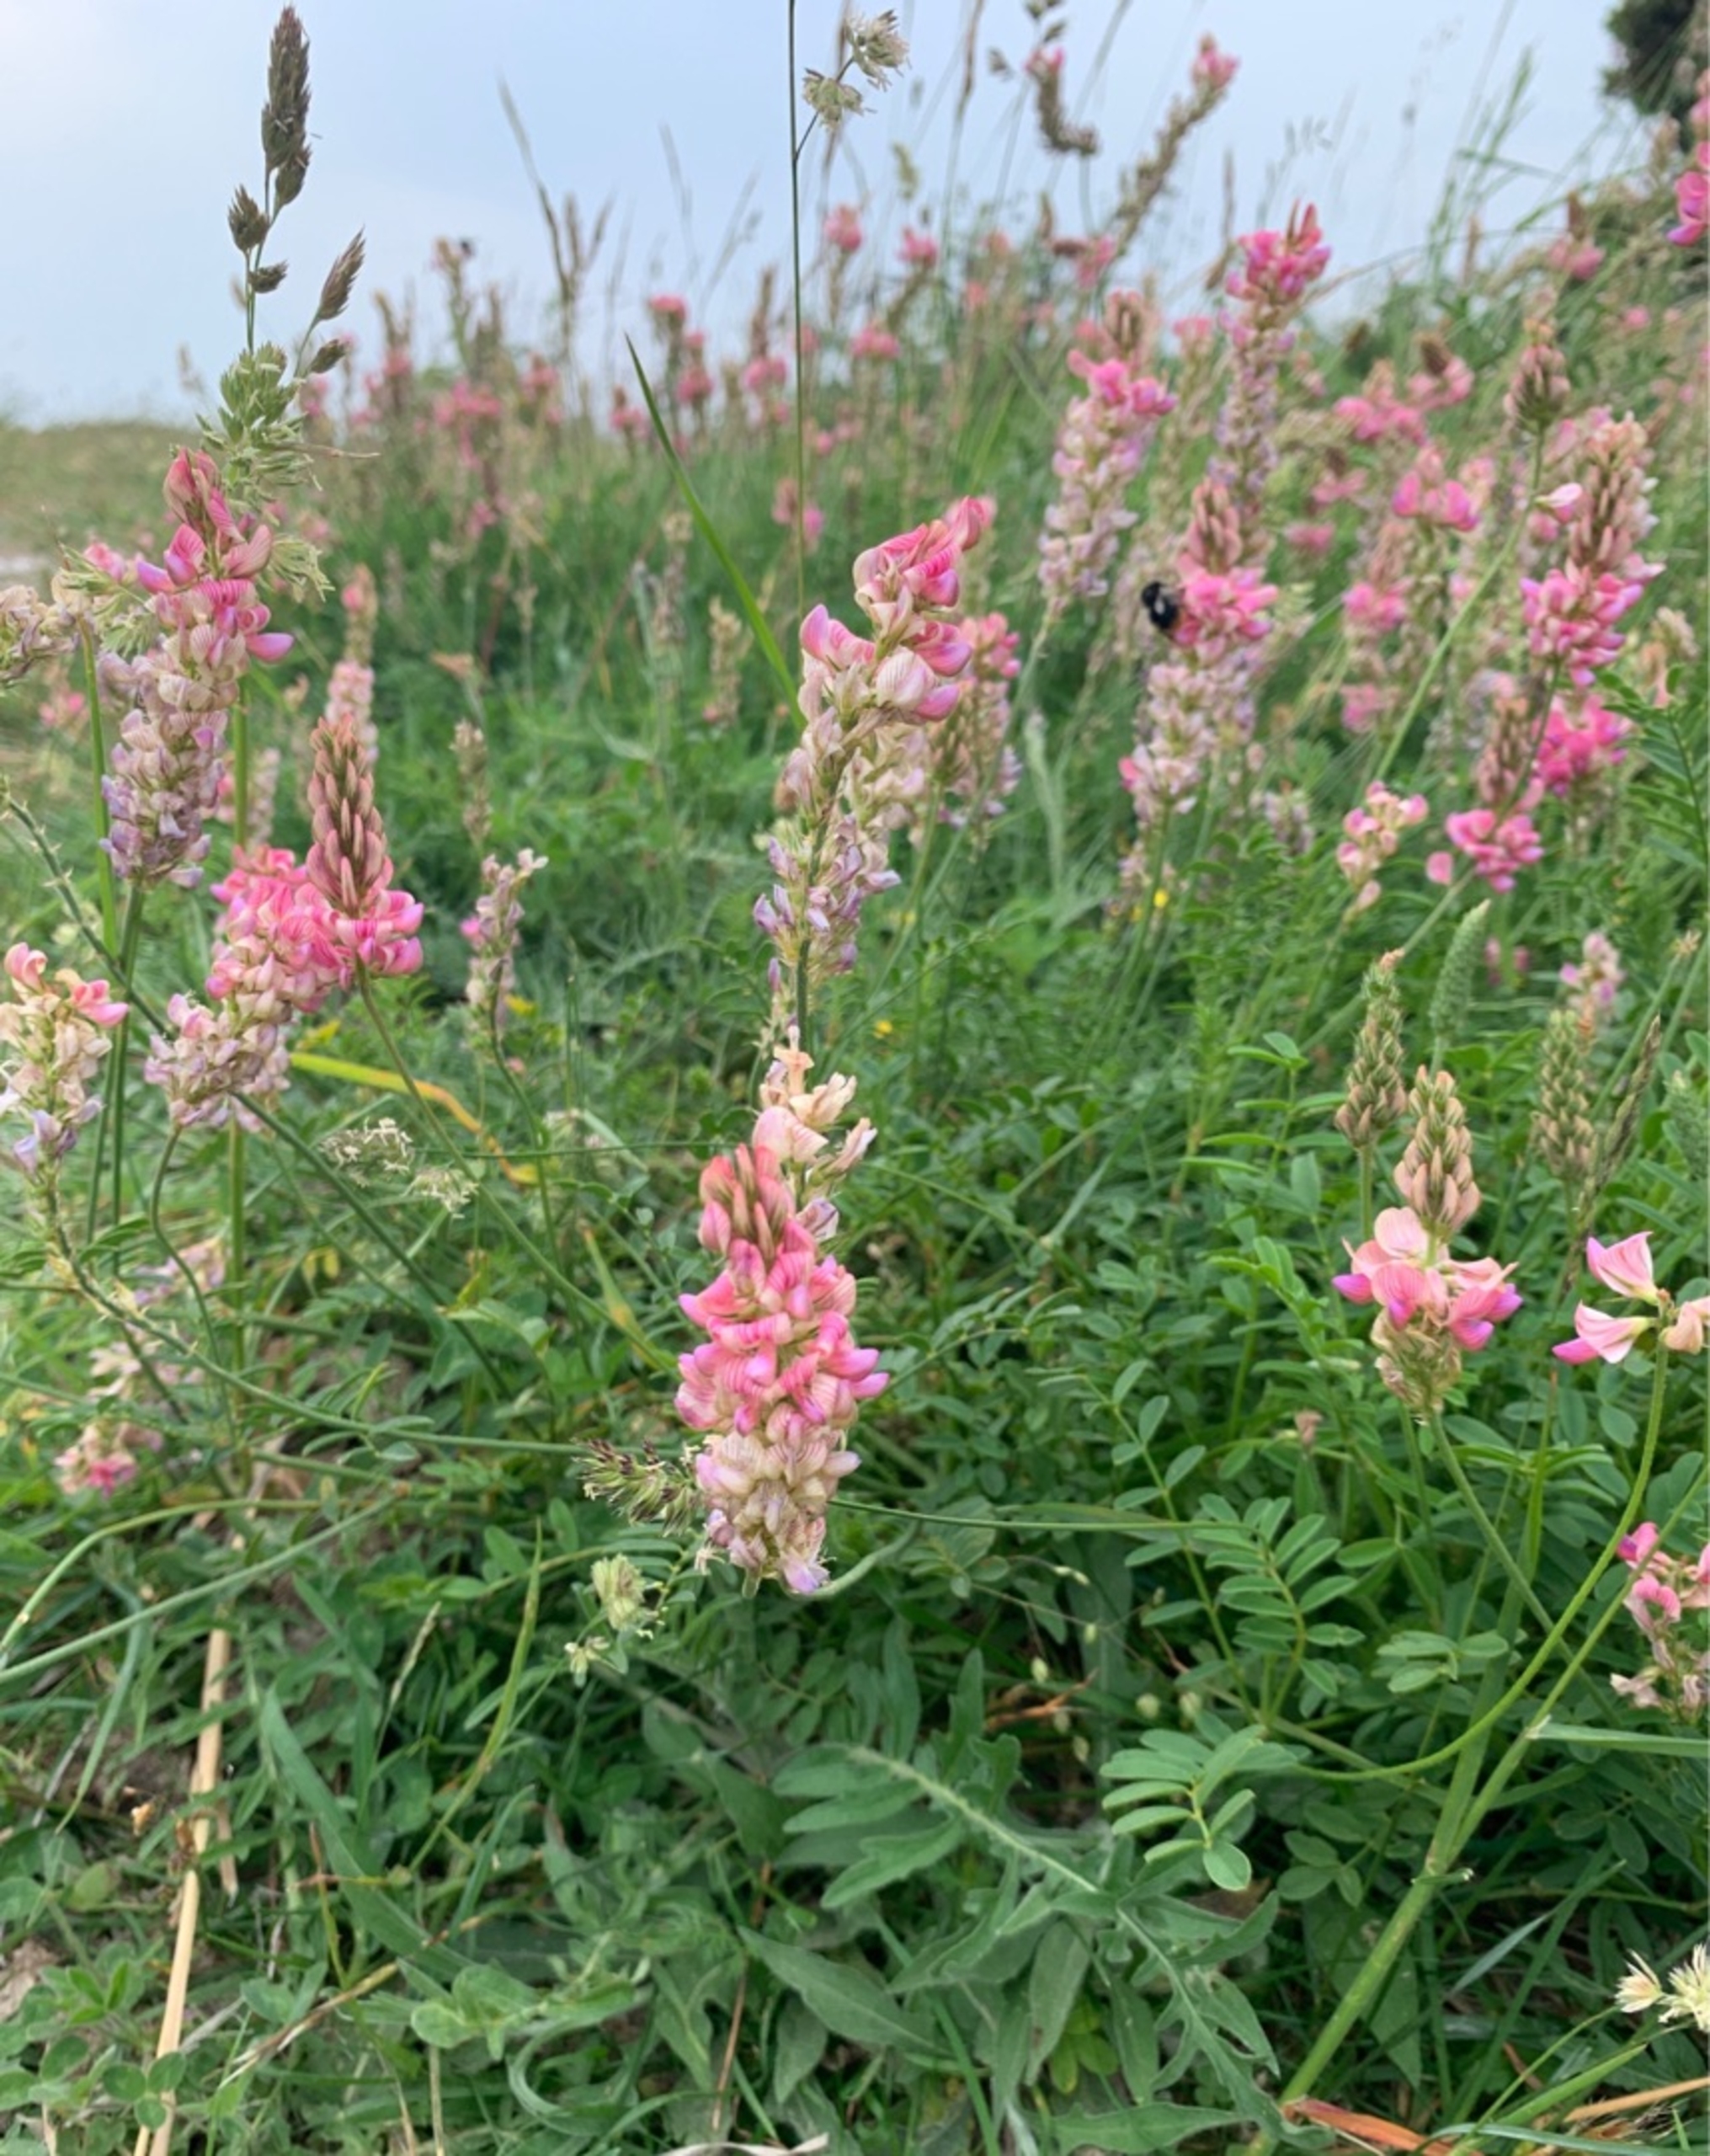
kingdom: Plantae
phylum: Tracheophyta
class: Magnoliopsida
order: Fabales
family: Fabaceae
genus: Onobrychis
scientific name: Onobrychis viciifolia
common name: Esparsette
